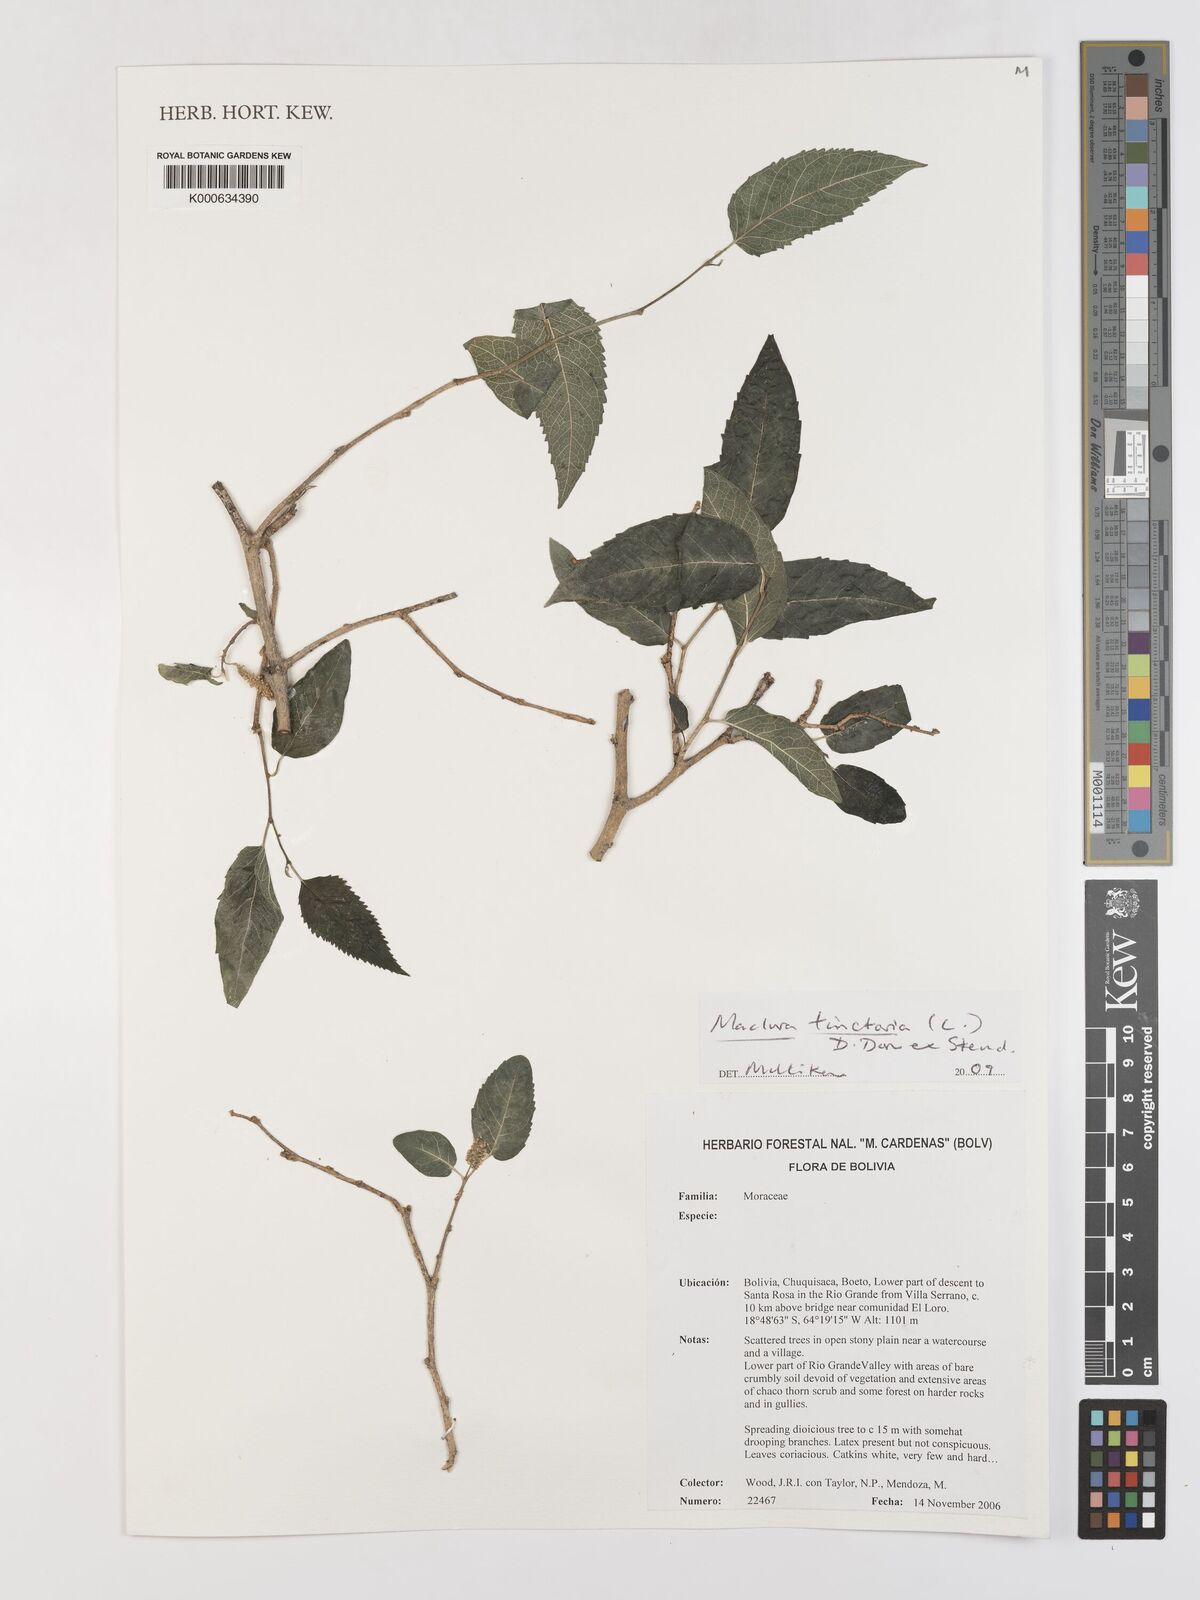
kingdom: Plantae
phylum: Tracheophyta
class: Magnoliopsida
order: Rosales
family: Moraceae
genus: Maclura
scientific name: Maclura tinctoria
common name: Old fustic
